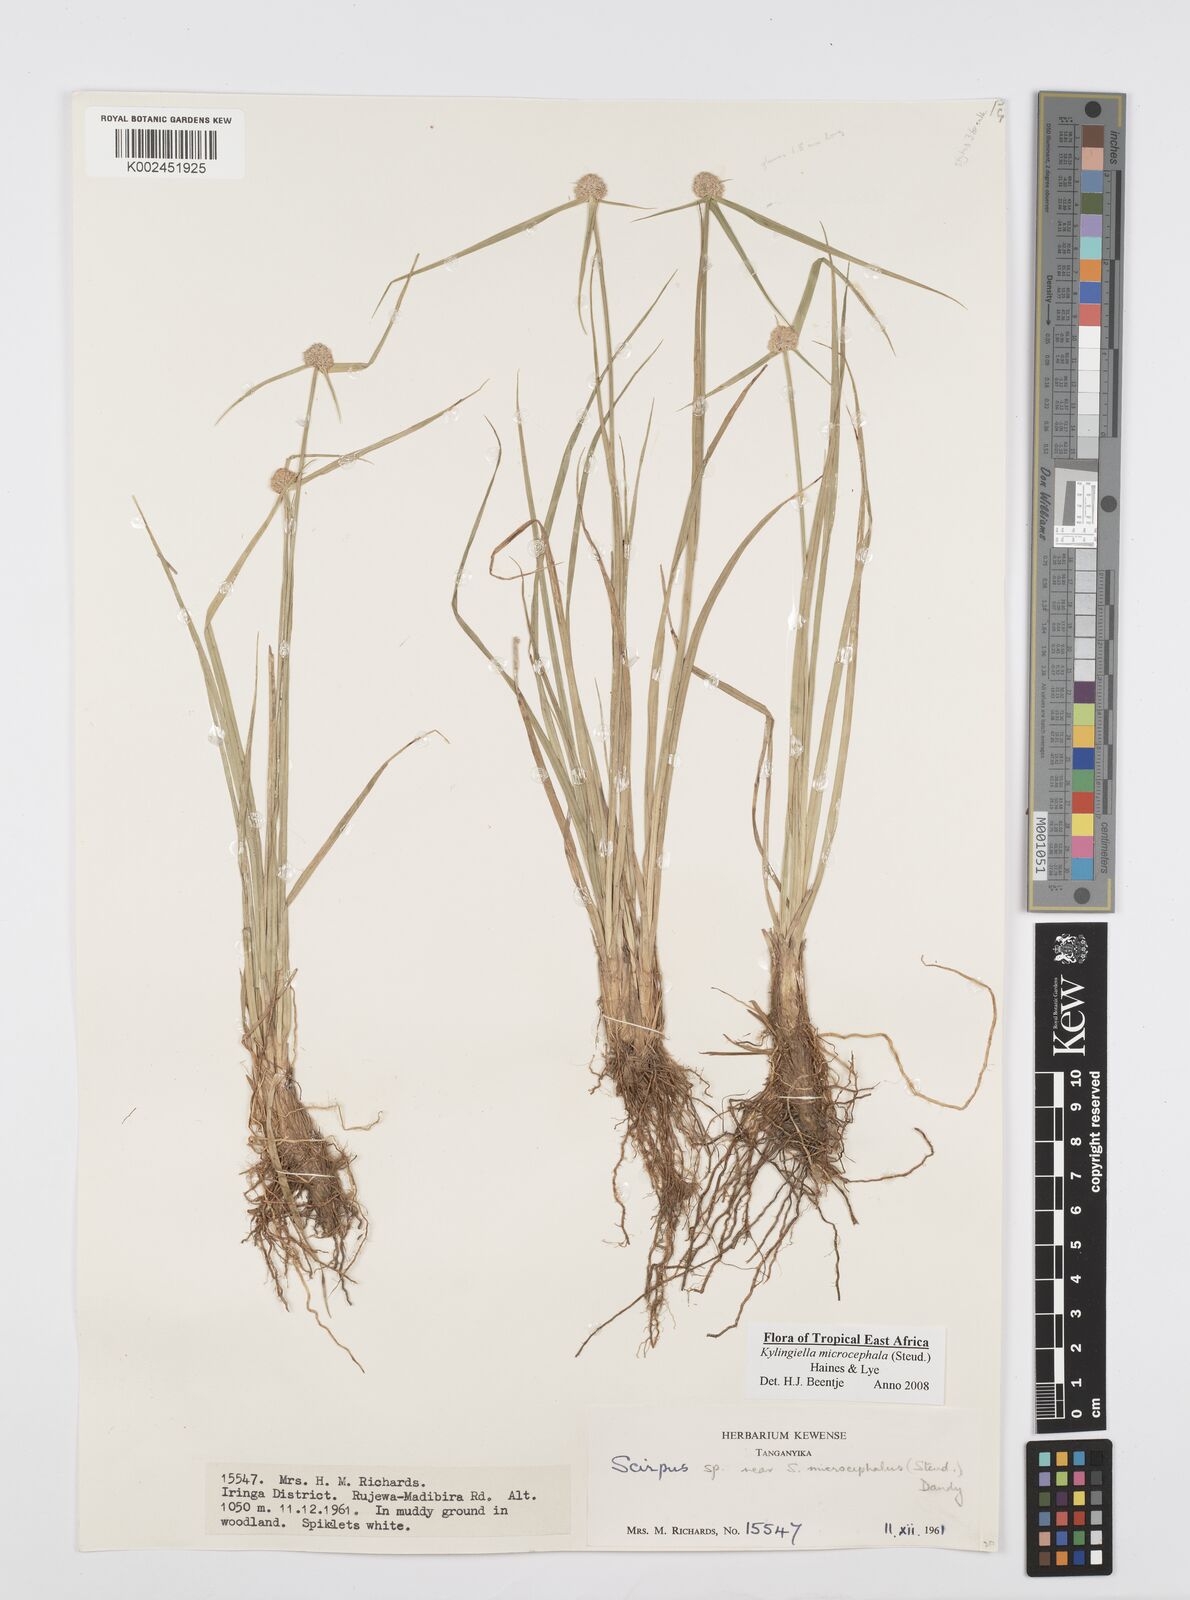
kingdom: Plantae
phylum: Tracheophyta
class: Liliopsida
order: Poales
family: Cyperaceae
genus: Cyperus
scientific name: Cyperus microcephalus
